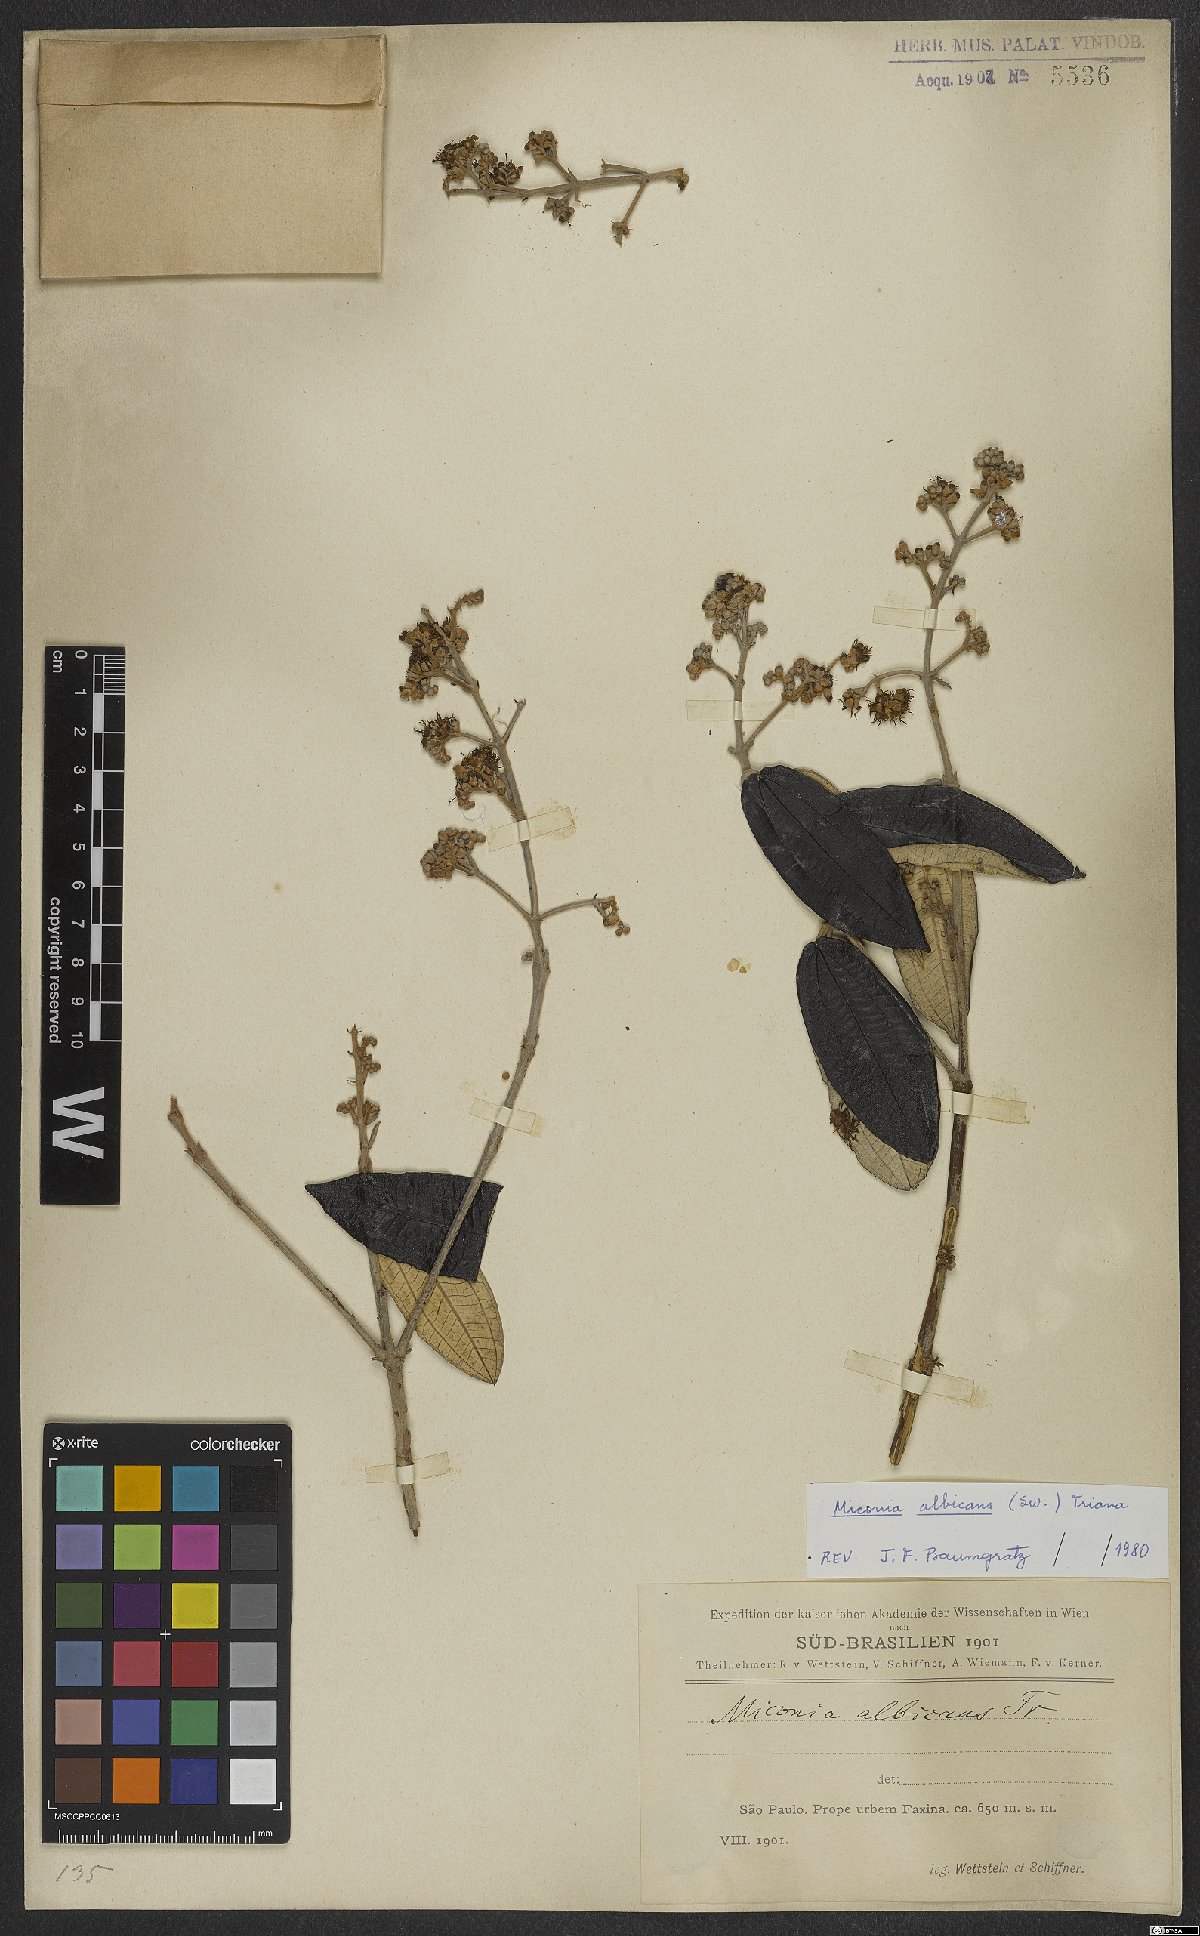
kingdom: Plantae
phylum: Tracheophyta
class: Magnoliopsida
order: Myrtales
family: Melastomataceae
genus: Miconia
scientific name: Miconia albicans
